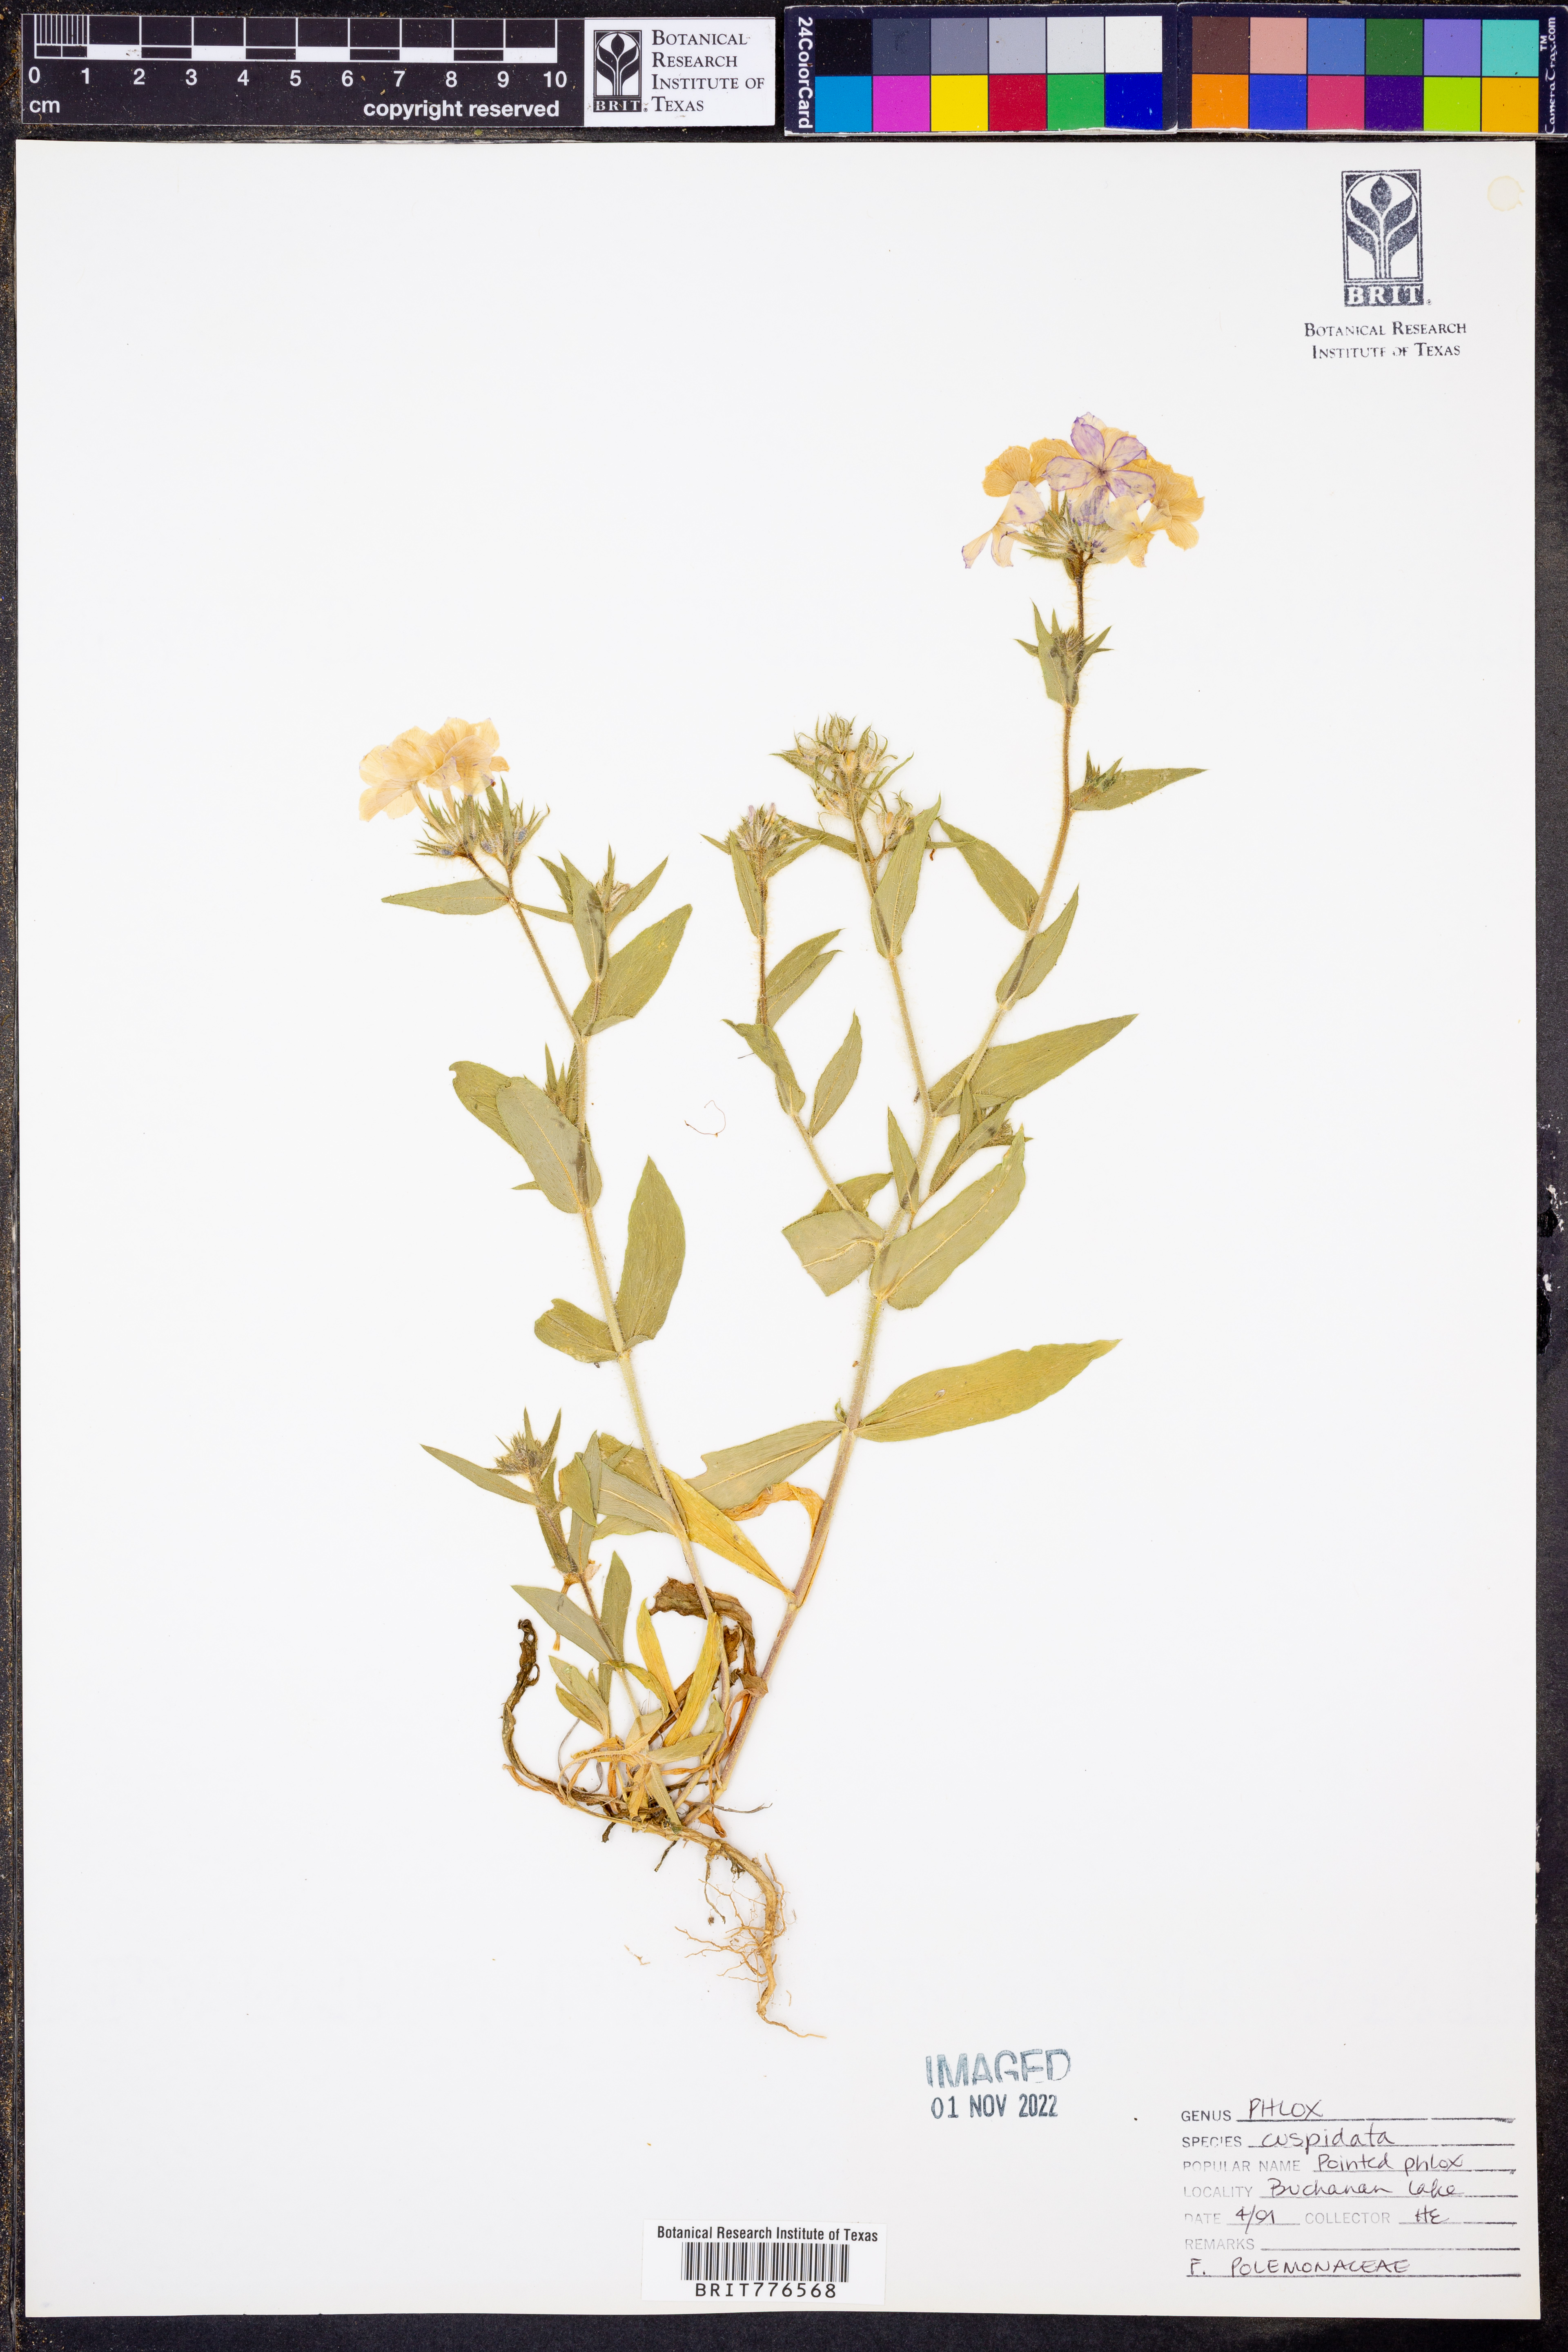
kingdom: Plantae
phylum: Tracheophyta
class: Magnoliopsida
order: Ericales
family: Polemoniaceae
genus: Phlox
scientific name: Phlox cuspidata
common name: Pointed phlox
